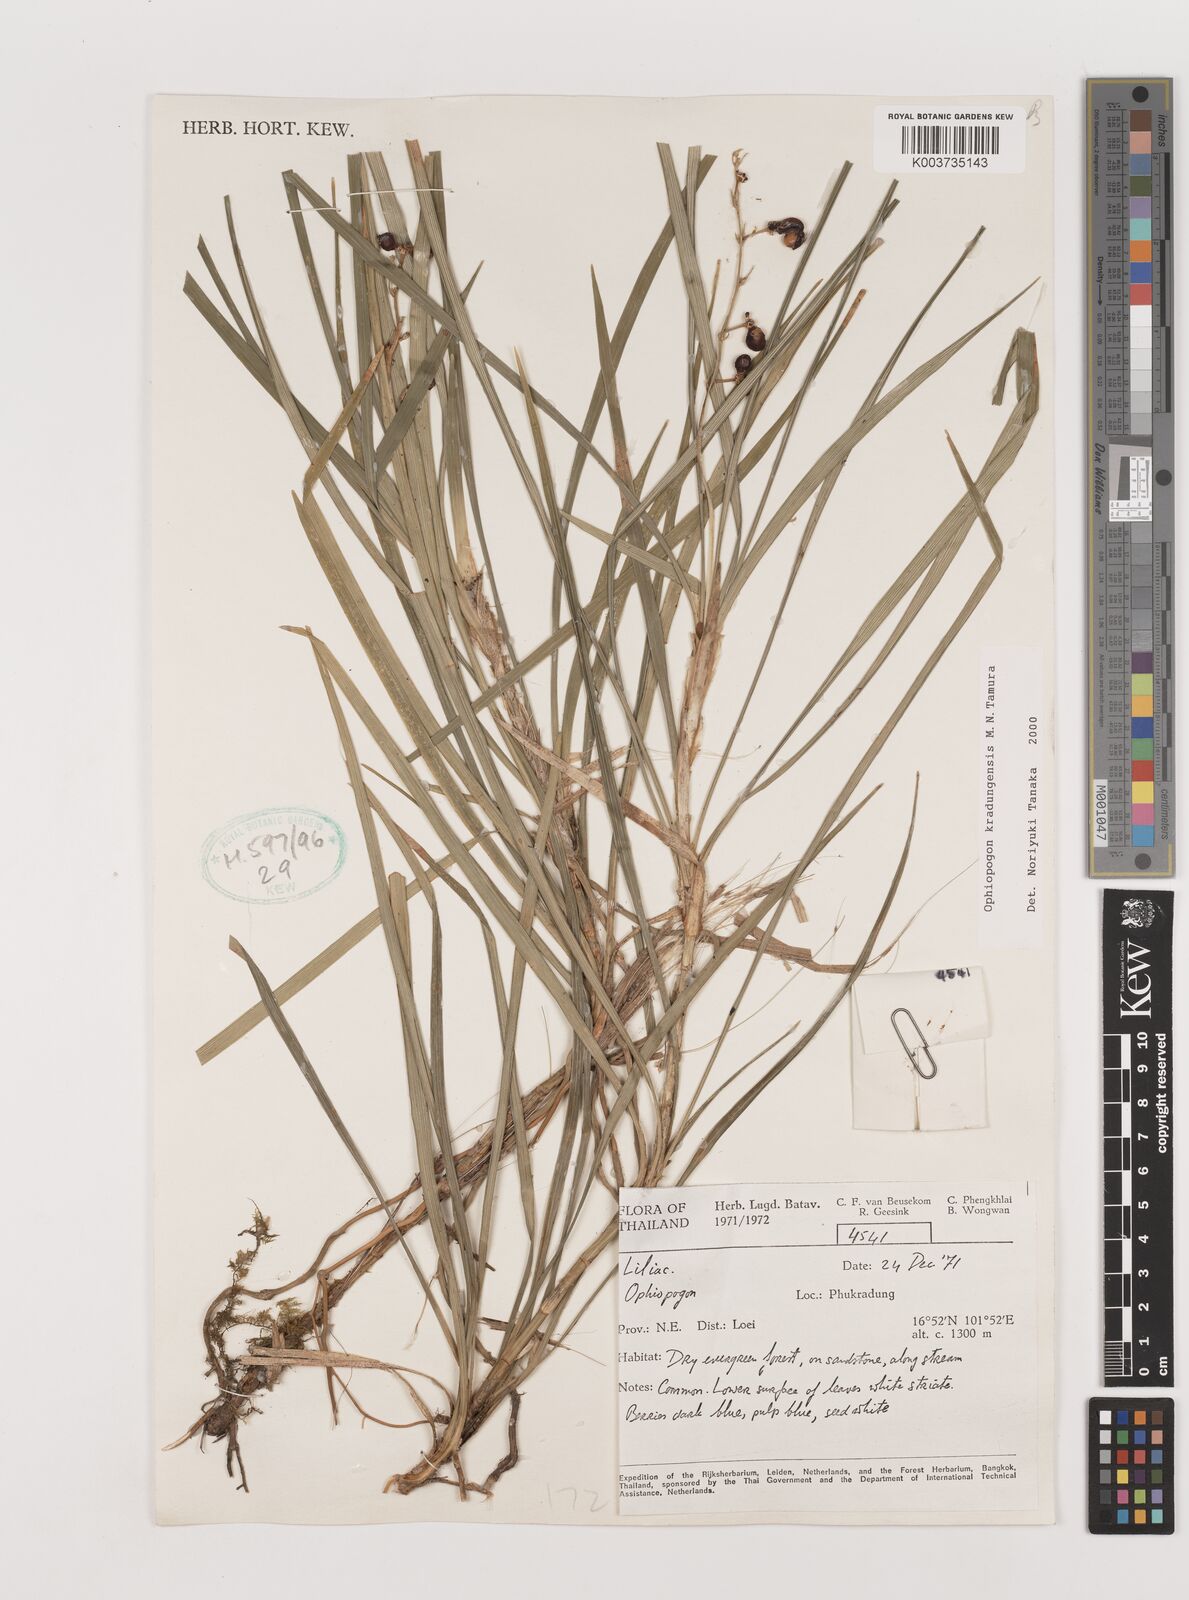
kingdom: Plantae
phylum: Tracheophyta
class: Liliopsida
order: Asparagales
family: Asparagaceae
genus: Ophiopogon
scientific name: Ophiopogon kradungensis
